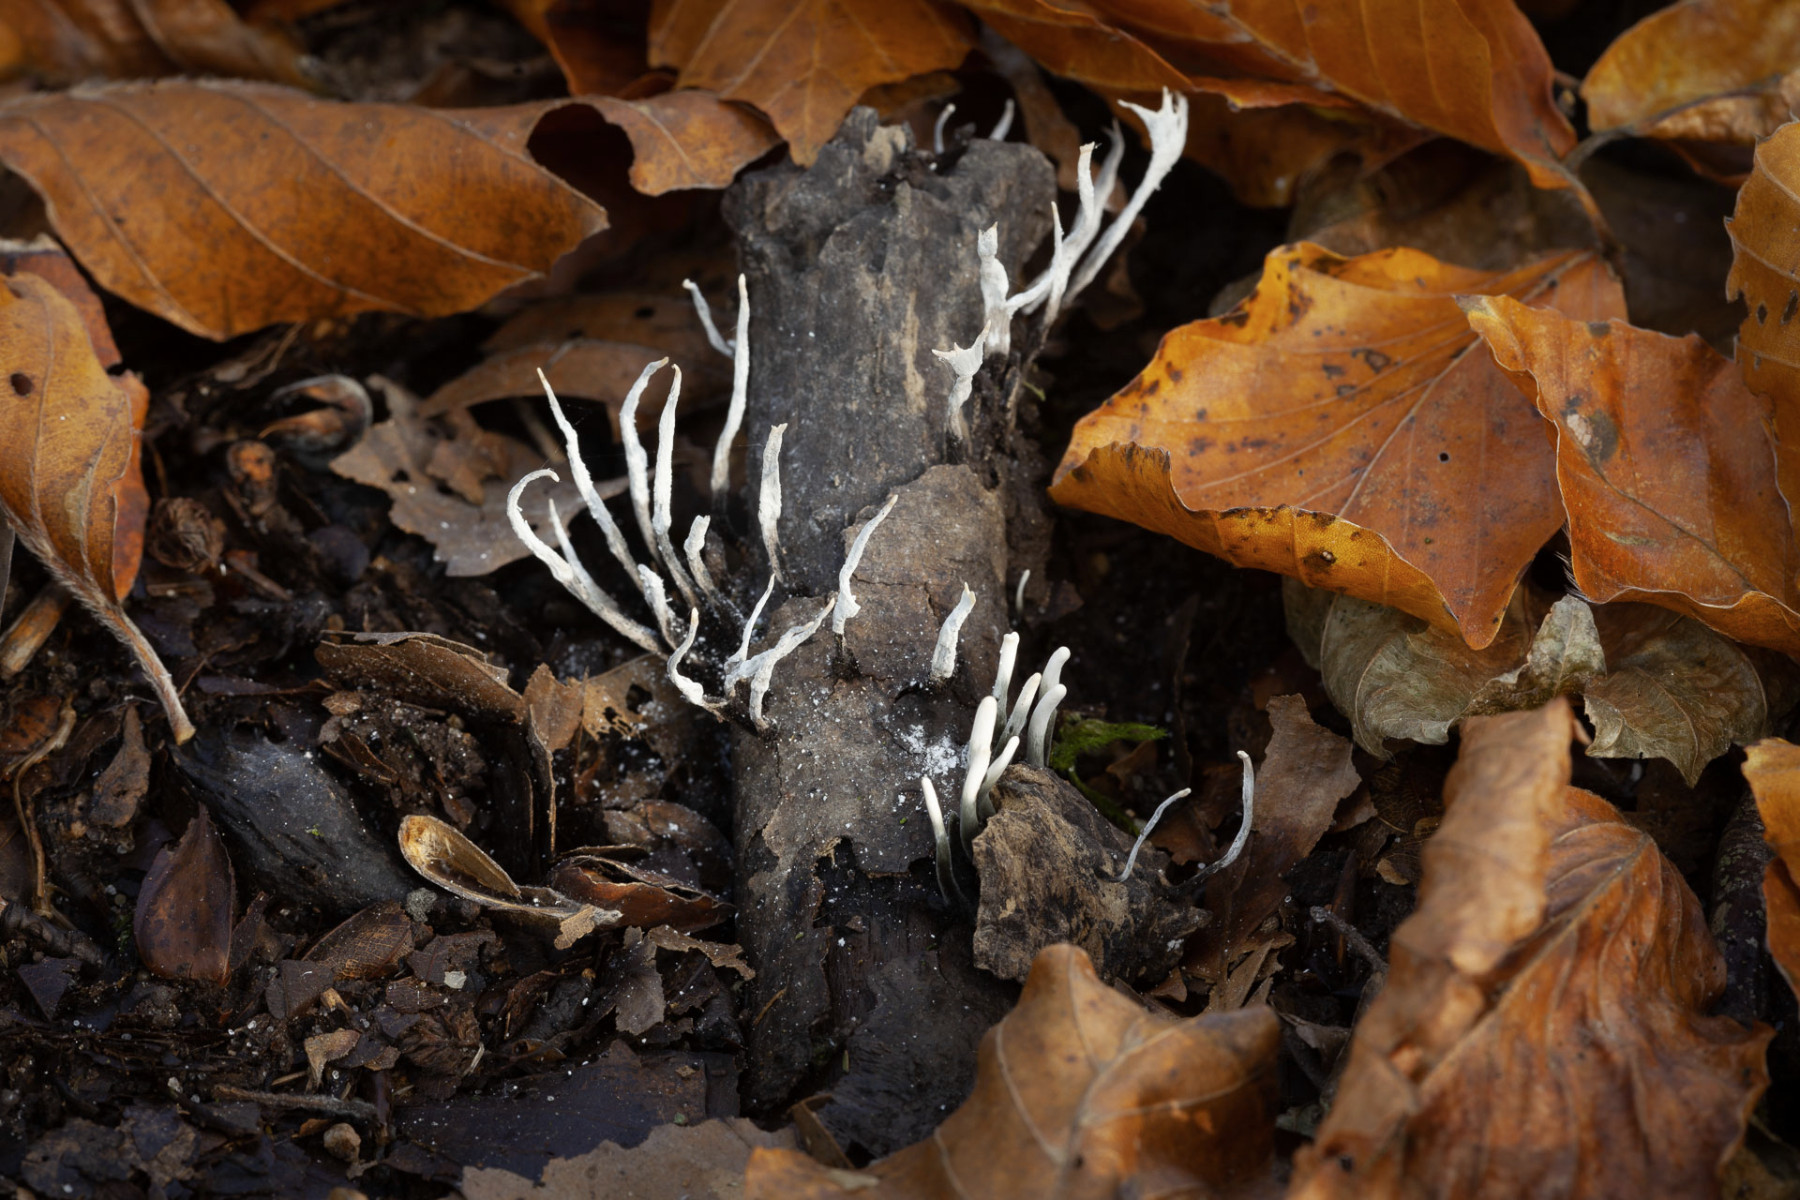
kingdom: Fungi
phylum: Ascomycota
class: Sordariomycetes
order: Xylariales
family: Xylariaceae
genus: Xylaria
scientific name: Xylaria hypoxylon
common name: grenet stødsvamp
